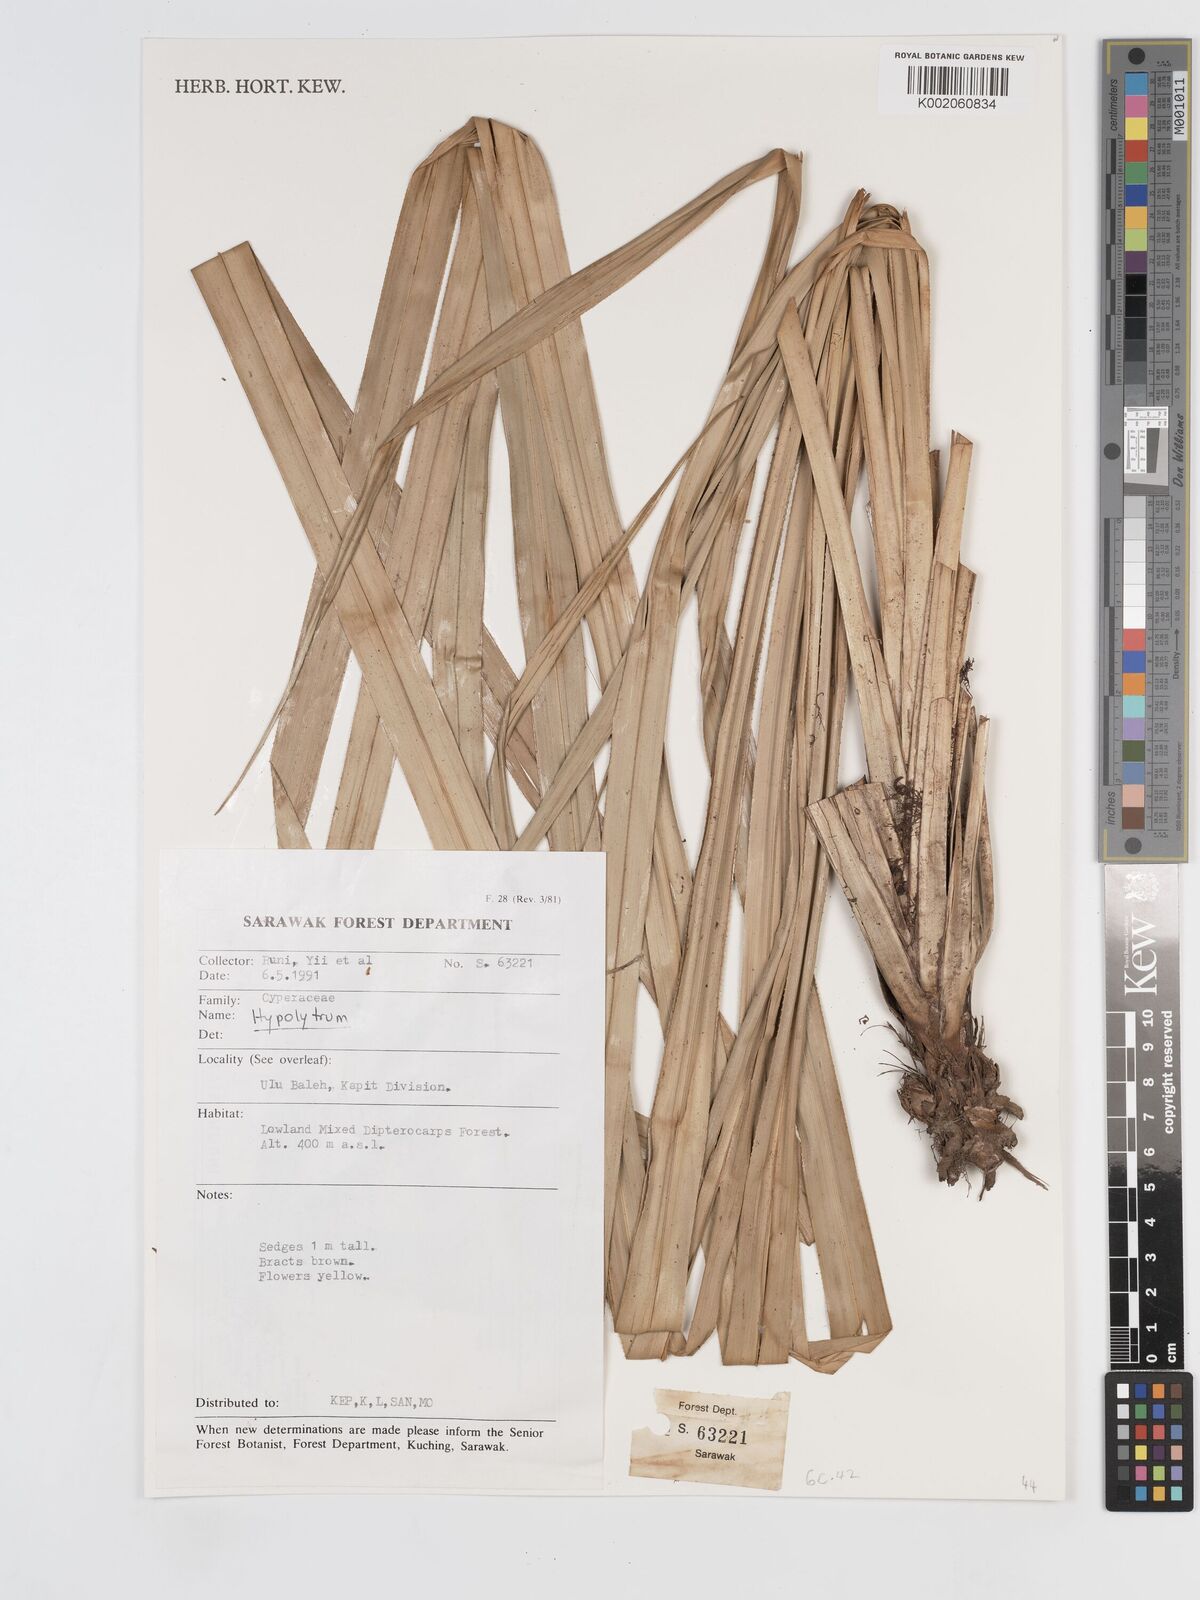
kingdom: Plantae
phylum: Tracheophyta
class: Liliopsida
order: Poales
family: Cyperaceae
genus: Hypolytrum
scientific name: Hypolytrum
